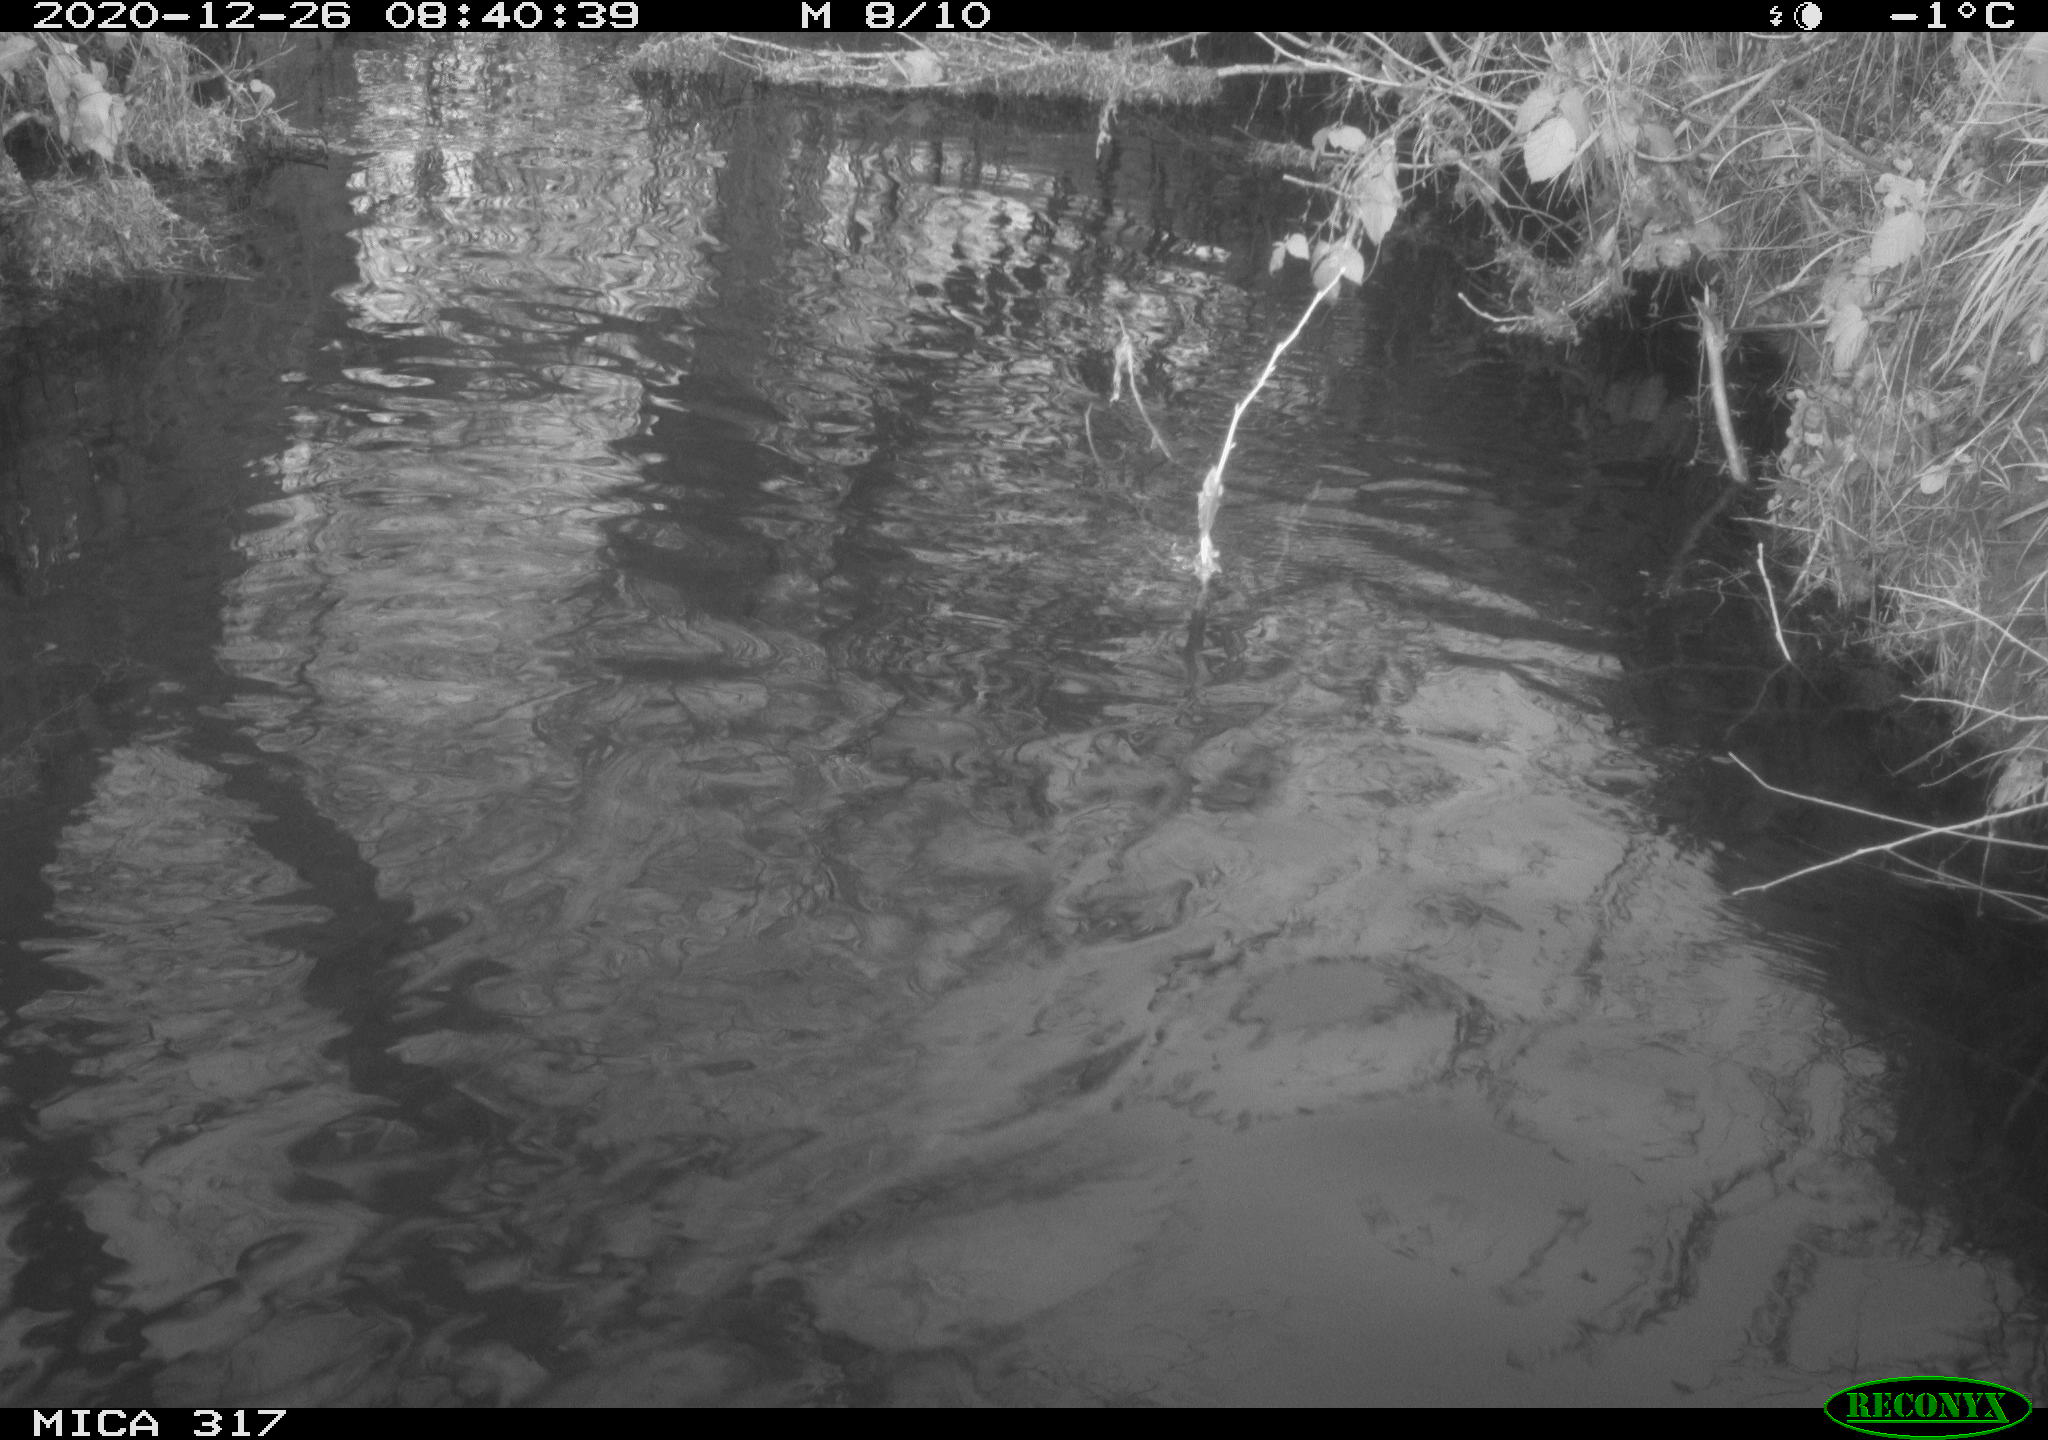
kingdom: Animalia
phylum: Chordata
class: Aves
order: Gruiformes
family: Rallidae
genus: Fulica
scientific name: Fulica atra
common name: Eurasian coot
